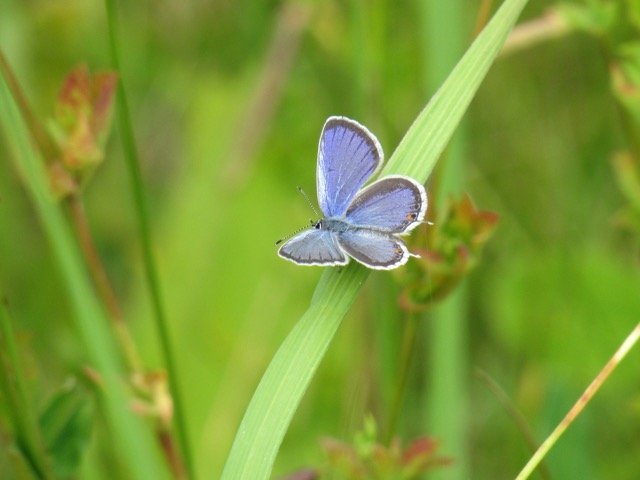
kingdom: Animalia
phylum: Arthropoda
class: Insecta
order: Lepidoptera
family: Lycaenidae
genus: Elkalyce
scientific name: Elkalyce comyntas
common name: Eastern Tailed-Blue
